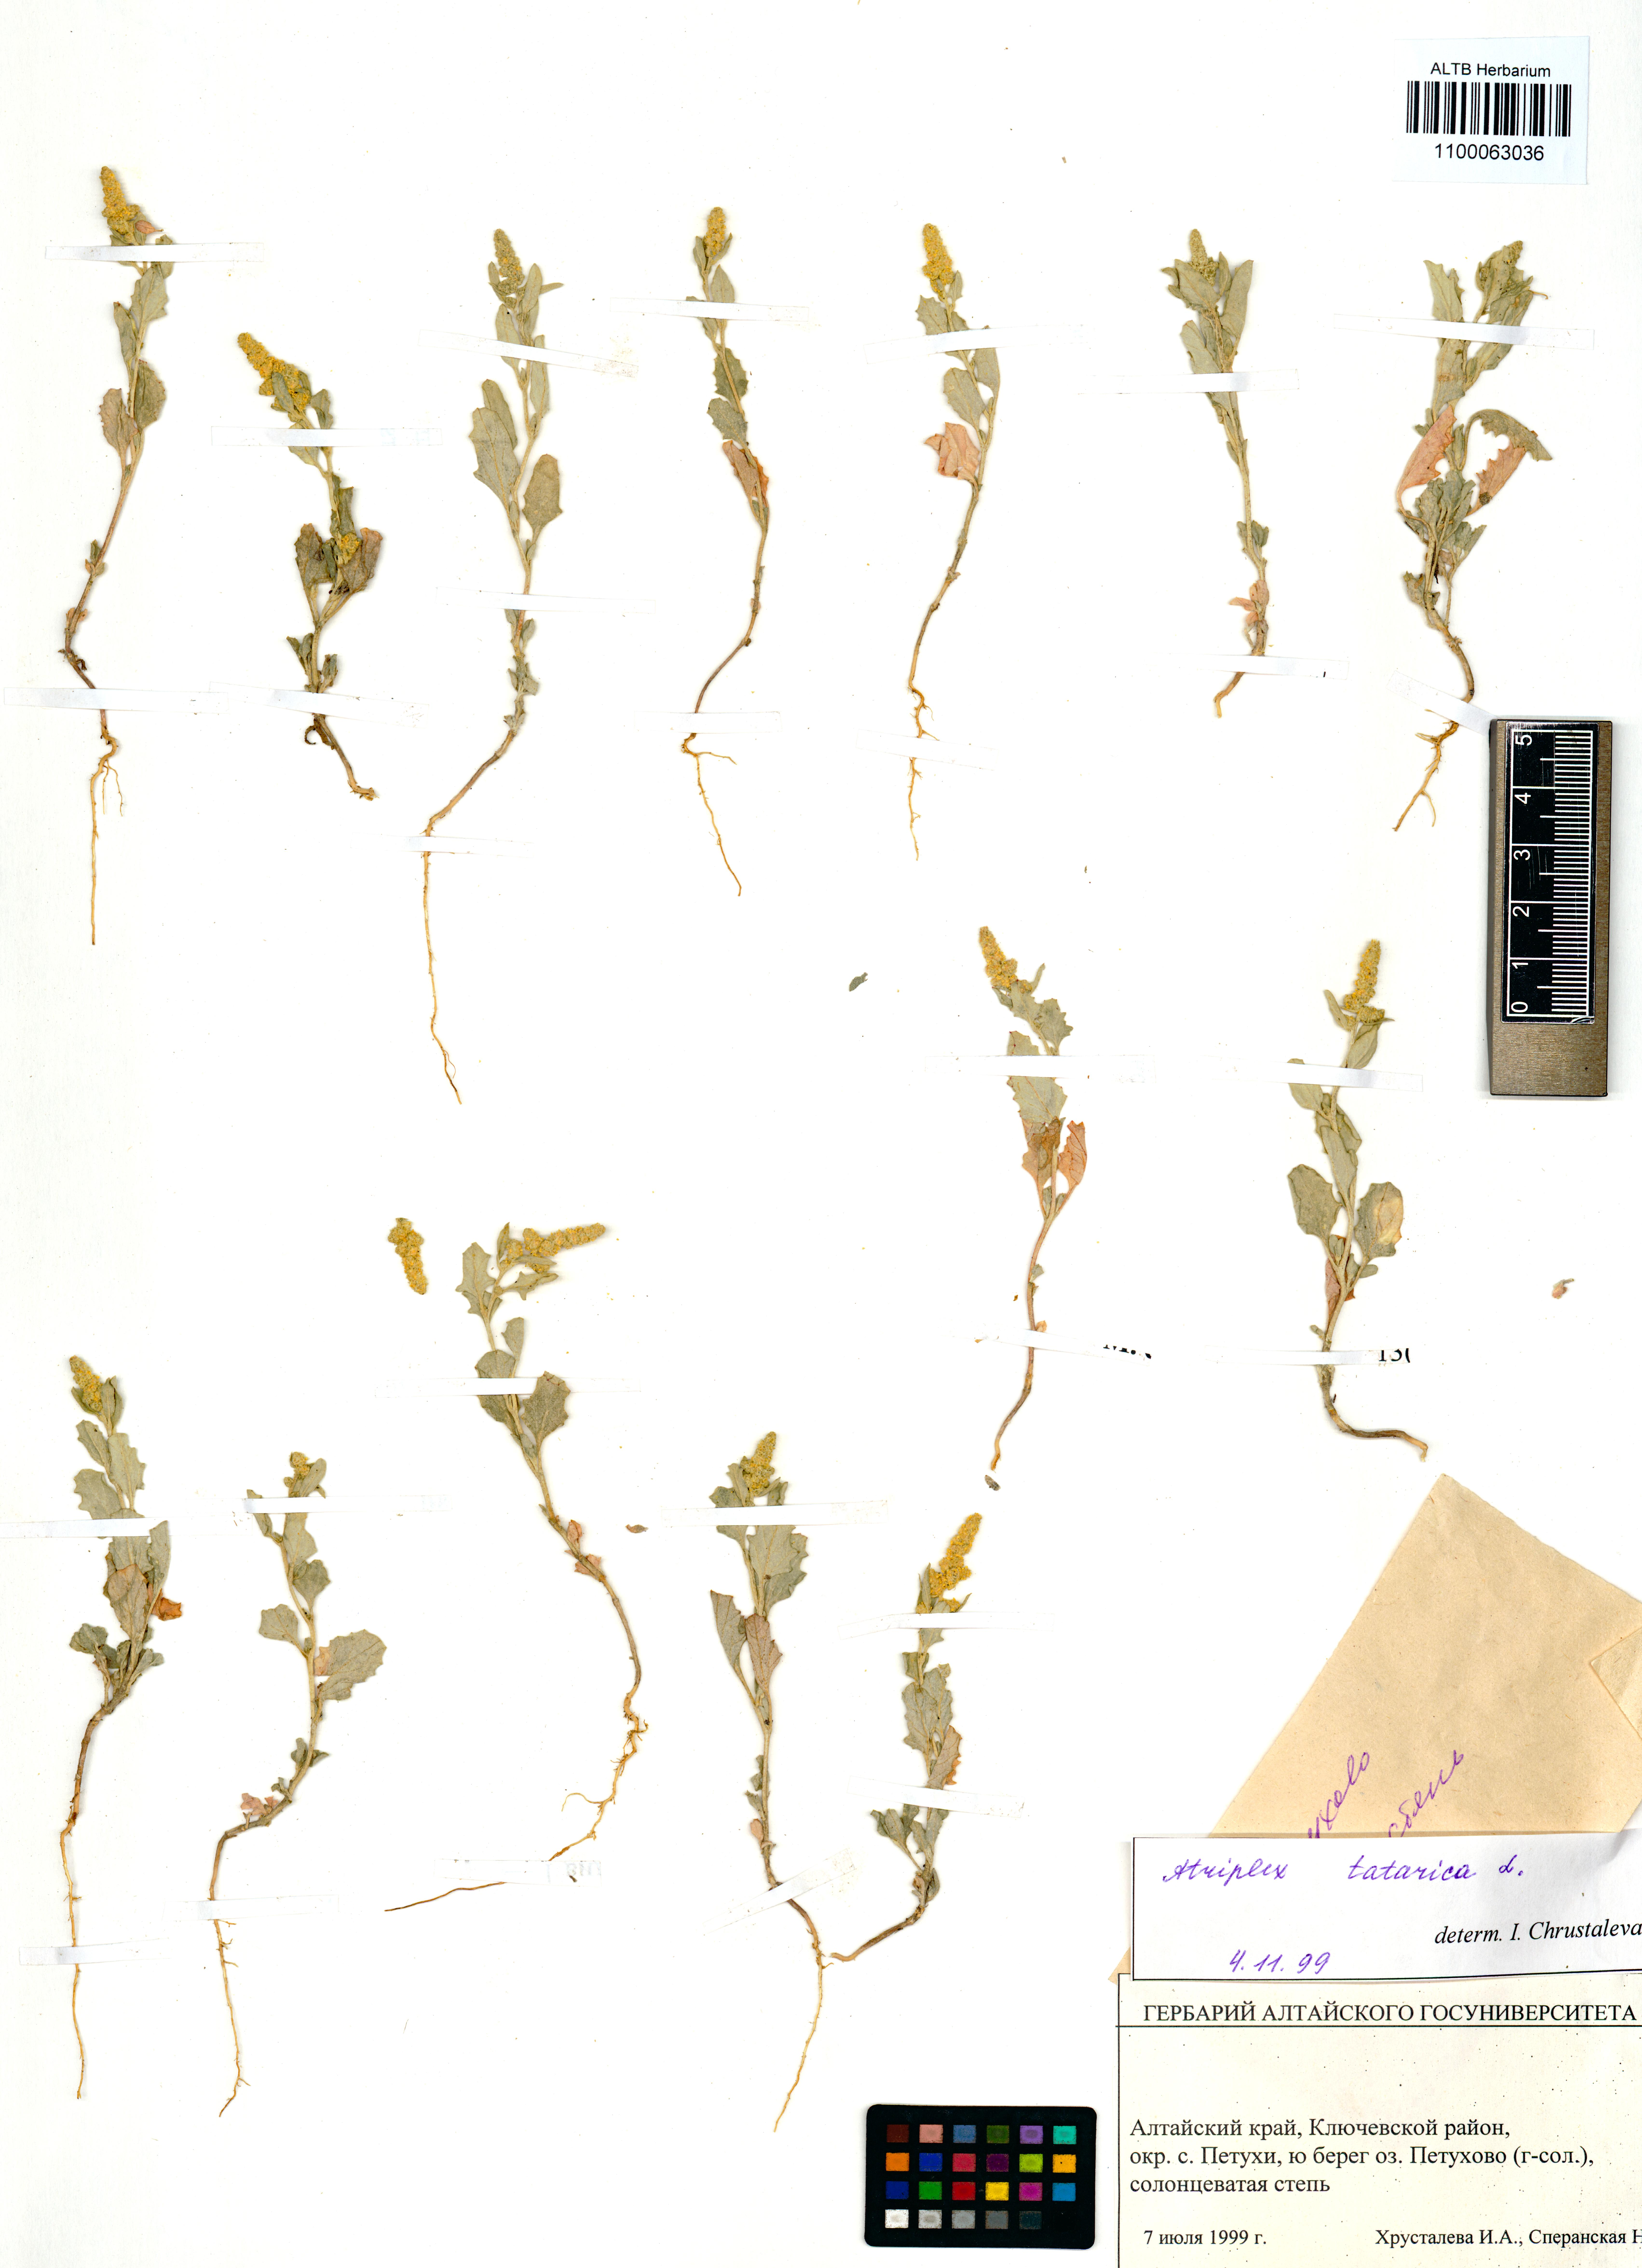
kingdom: Plantae
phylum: Tracheophyta
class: Magnoliopsida
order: Caryophyllales
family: Amaranthaceae
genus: Atriplex
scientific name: Atriplex tatarica
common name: Tatarian orache
